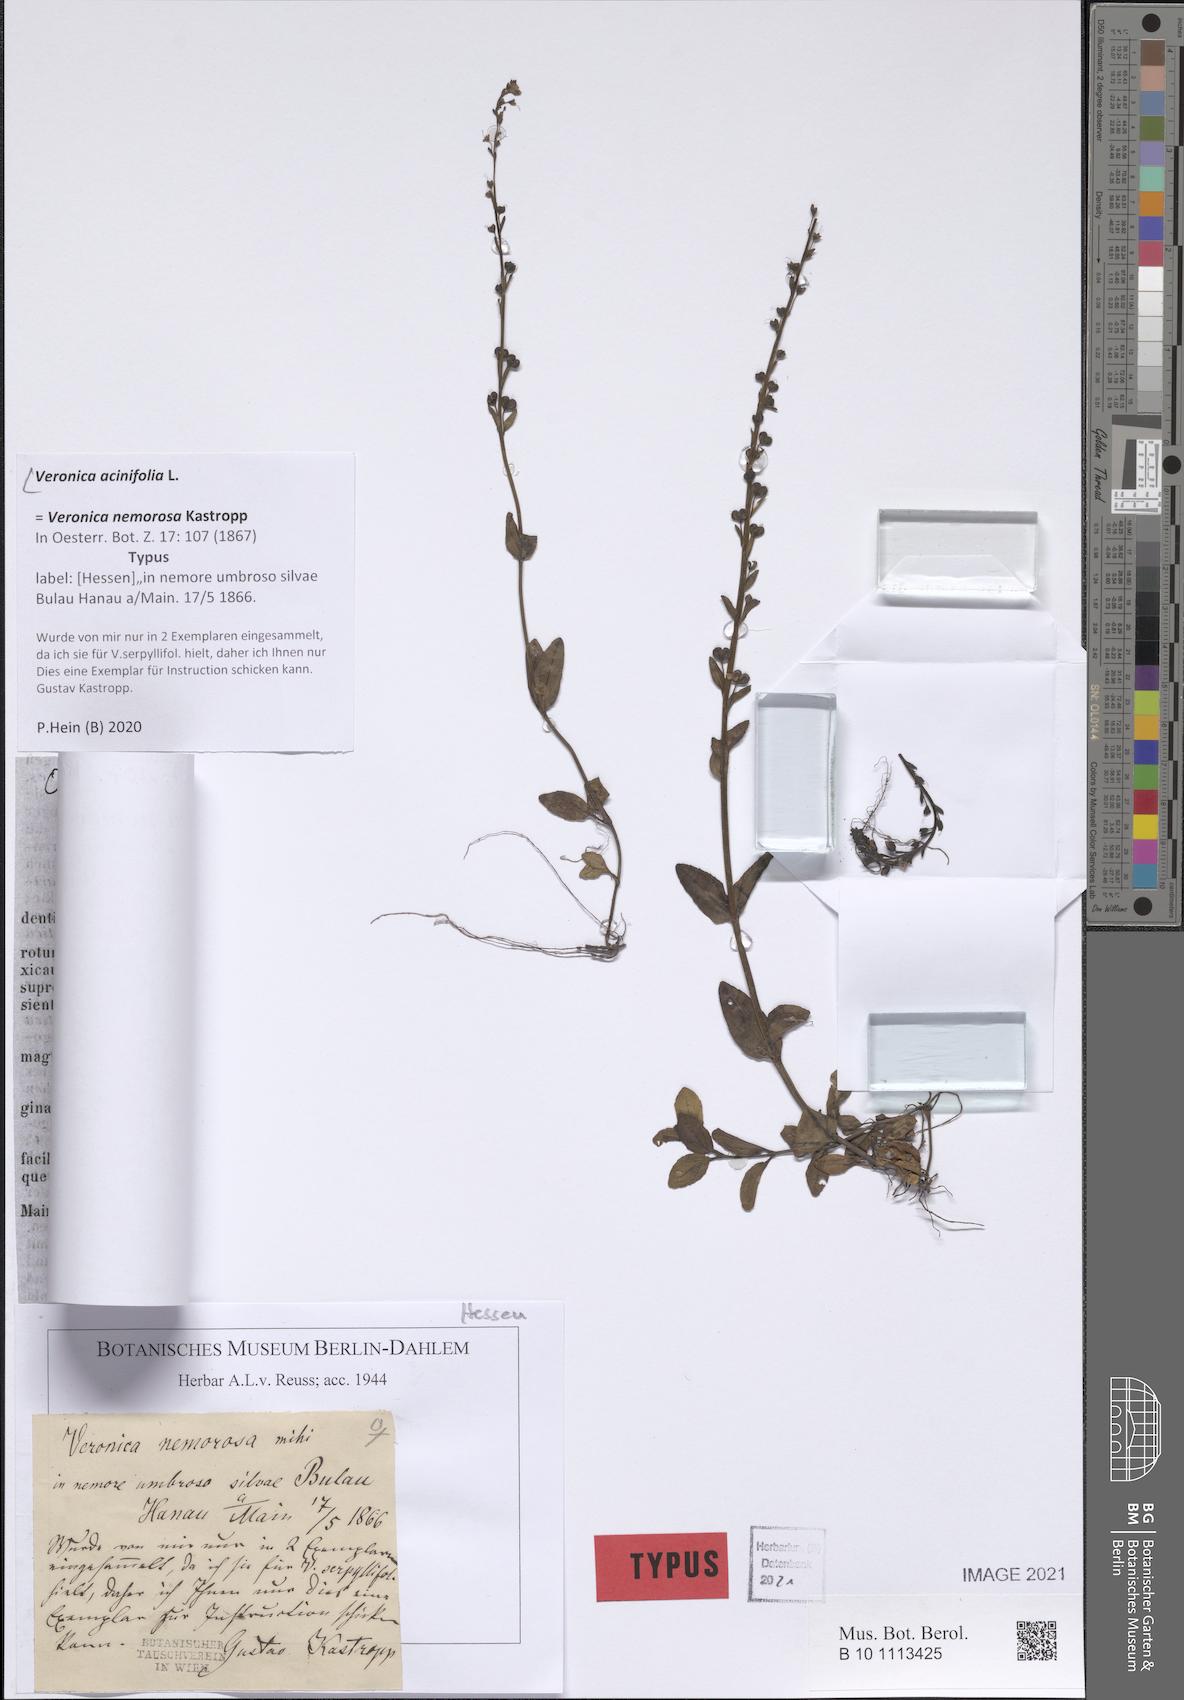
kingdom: Plantae
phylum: Tracheophyta
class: Magnoliopsida
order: Lamiales
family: Plantaginaceae
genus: Veronica
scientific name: Veronica acinifolia
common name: French speedwell
